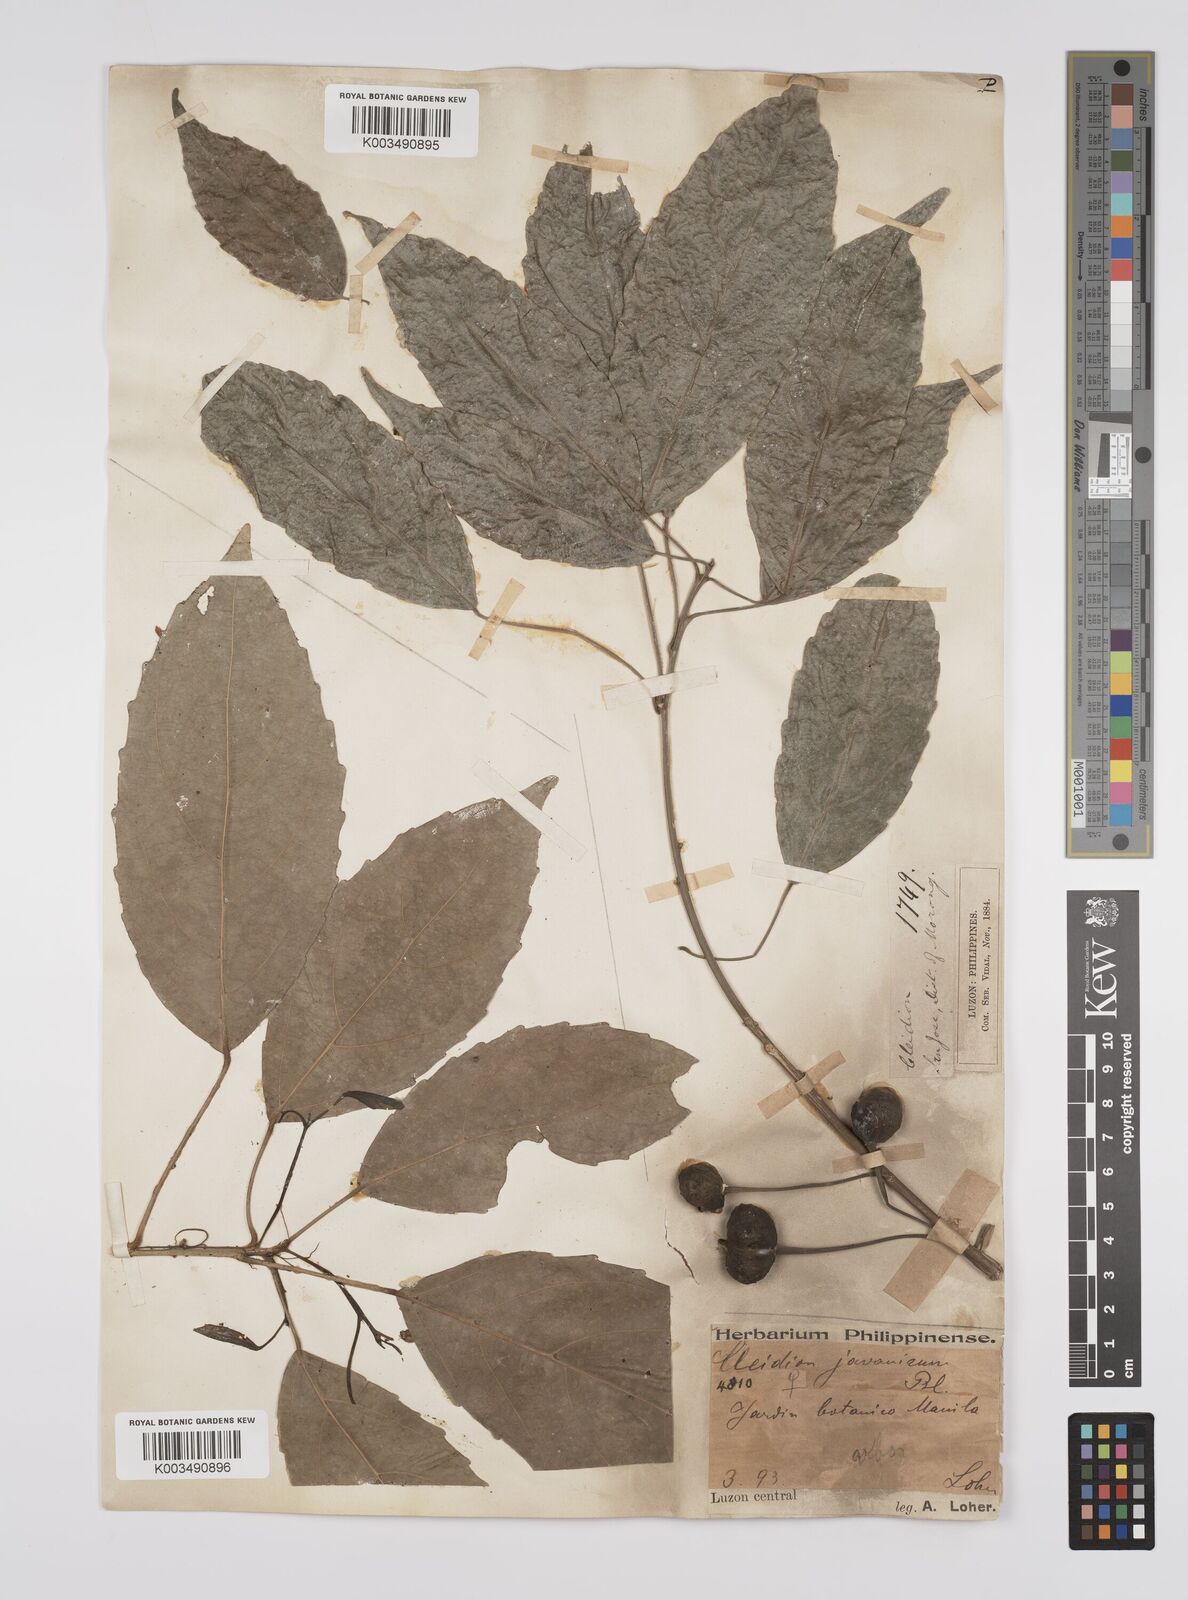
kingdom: Plantae
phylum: Tracheophyta
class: Magnoliopsida
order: Malpighiales
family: Euphorbiaceae
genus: Cleidion
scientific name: Cleidion javanicum
